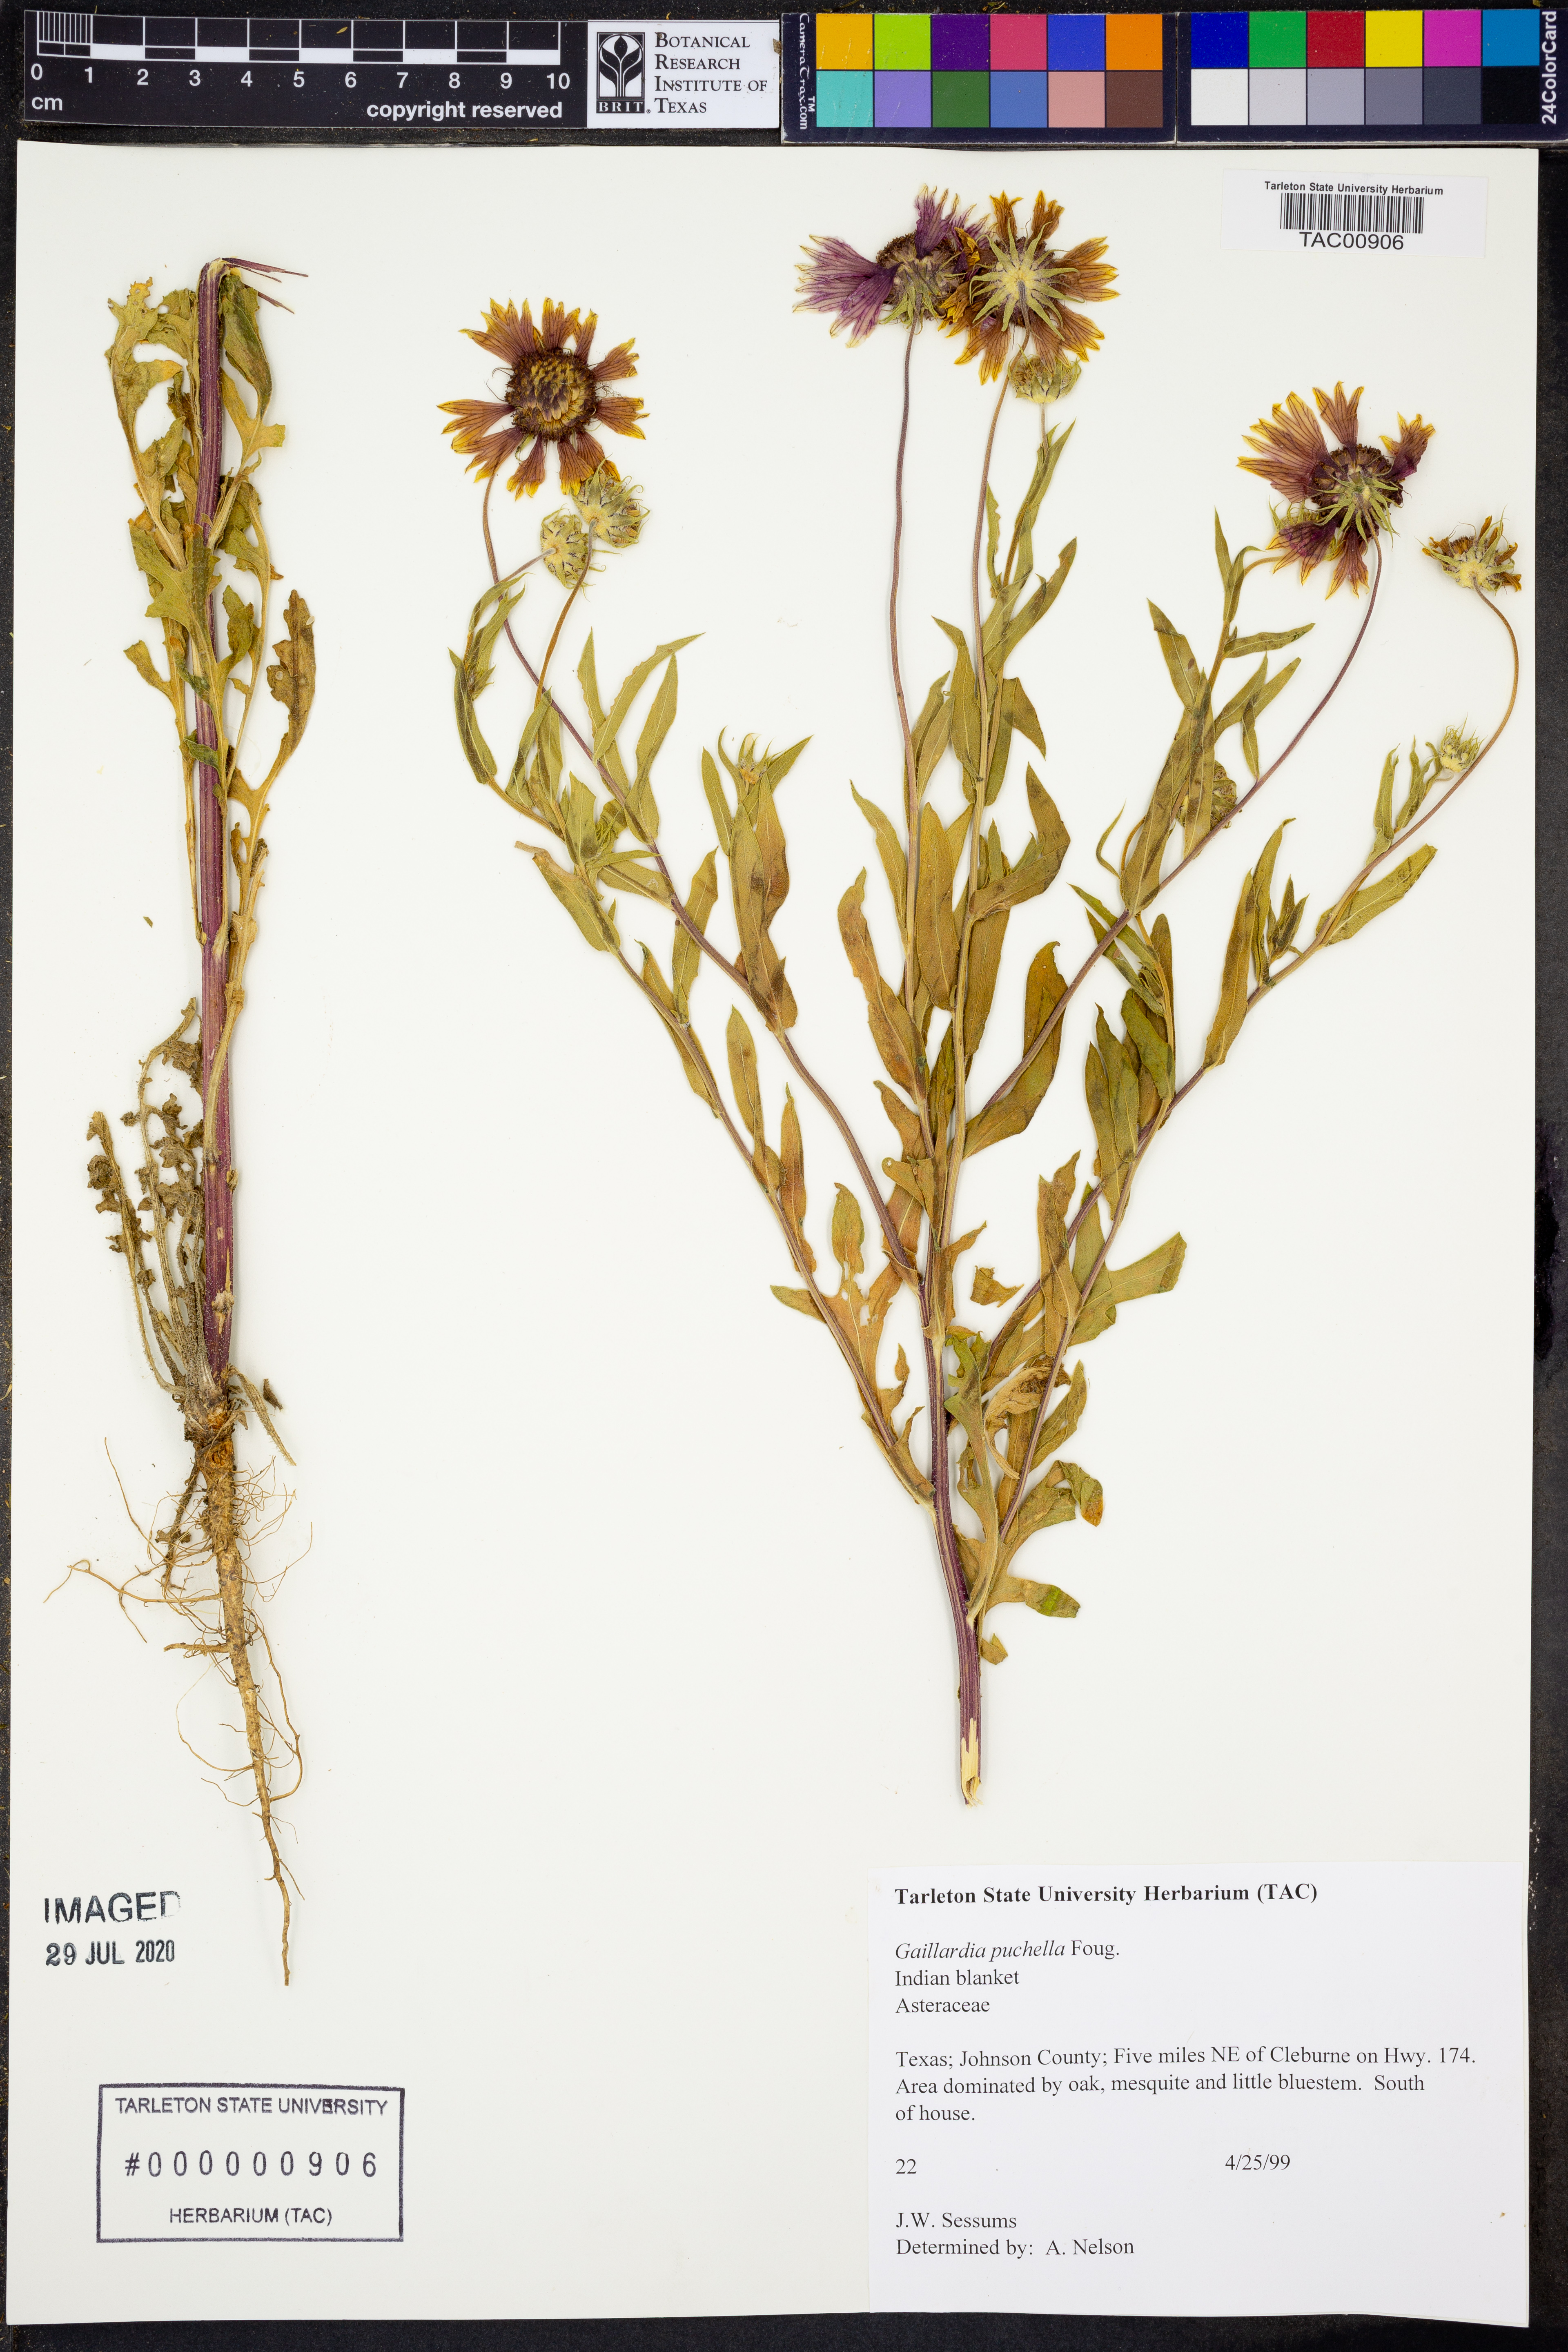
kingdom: Plantae
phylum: Tracheophyta
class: Magnoliopsida
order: Asterales
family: Asteraceae
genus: Gaillardia
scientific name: Gaillardia pulchella
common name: Firewheel
